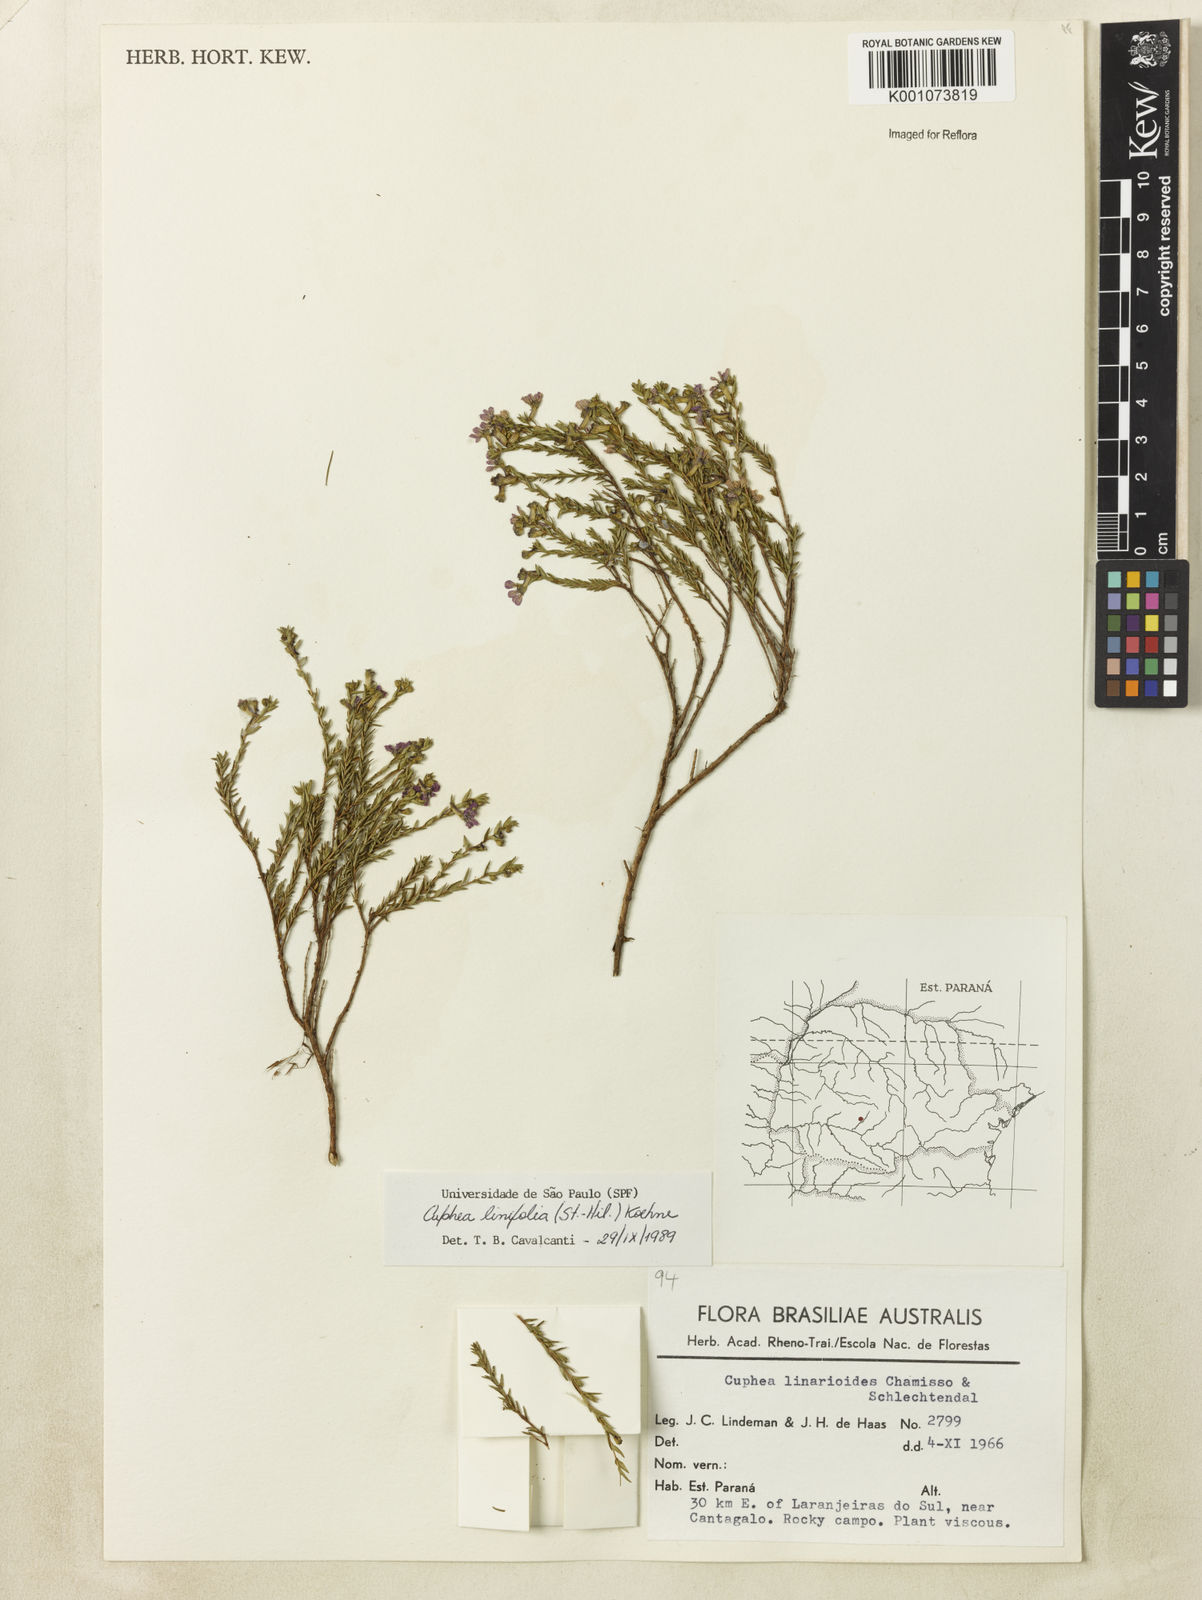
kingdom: Plantae
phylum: Tracheophyta
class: Magnoliopsida
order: Myrtales
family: Lythraceae
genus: Cuphea
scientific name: Cuphea linifolia
